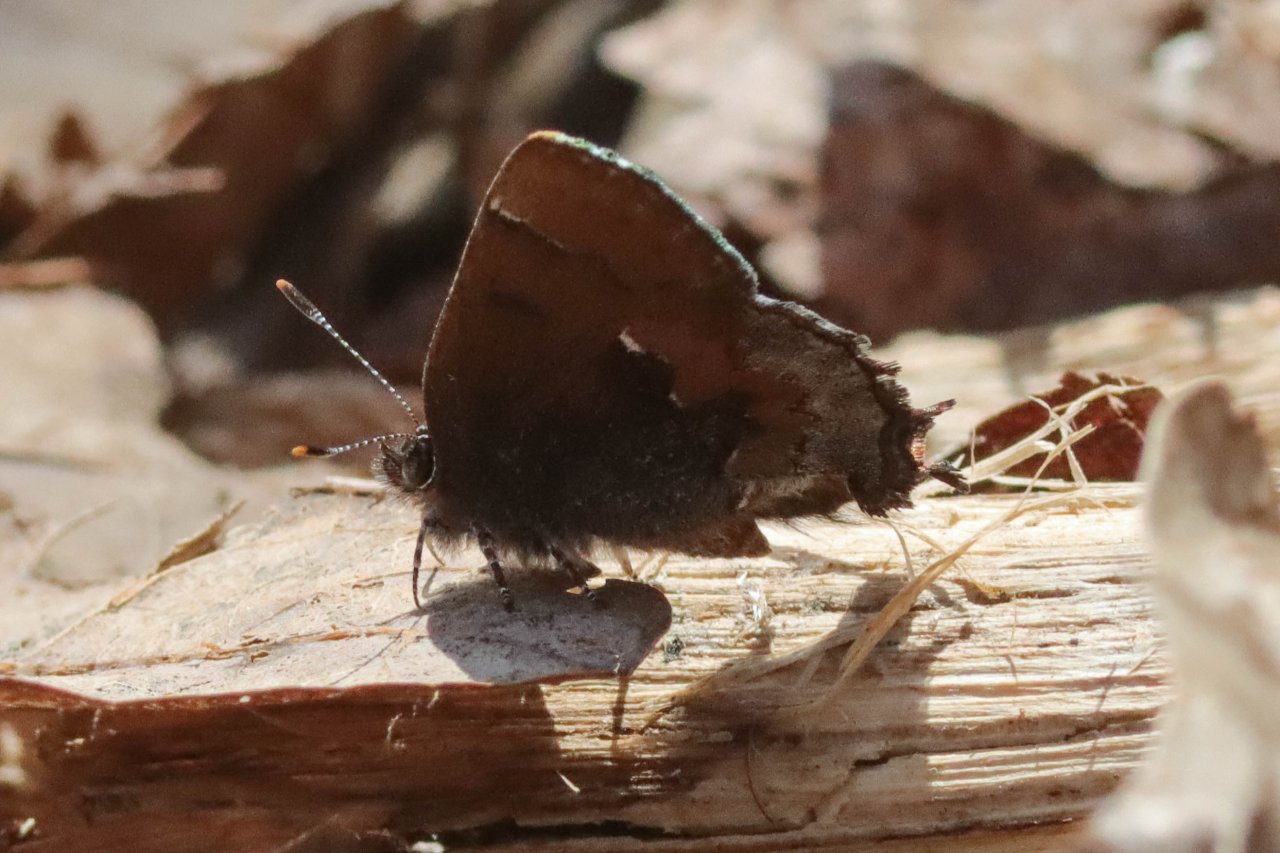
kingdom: Animalia
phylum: Arthropoda
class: Insecta
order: Lepidoptera
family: Lycaenidae
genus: Incisalia
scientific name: Incisalia henrici
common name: Henry's Elfin
